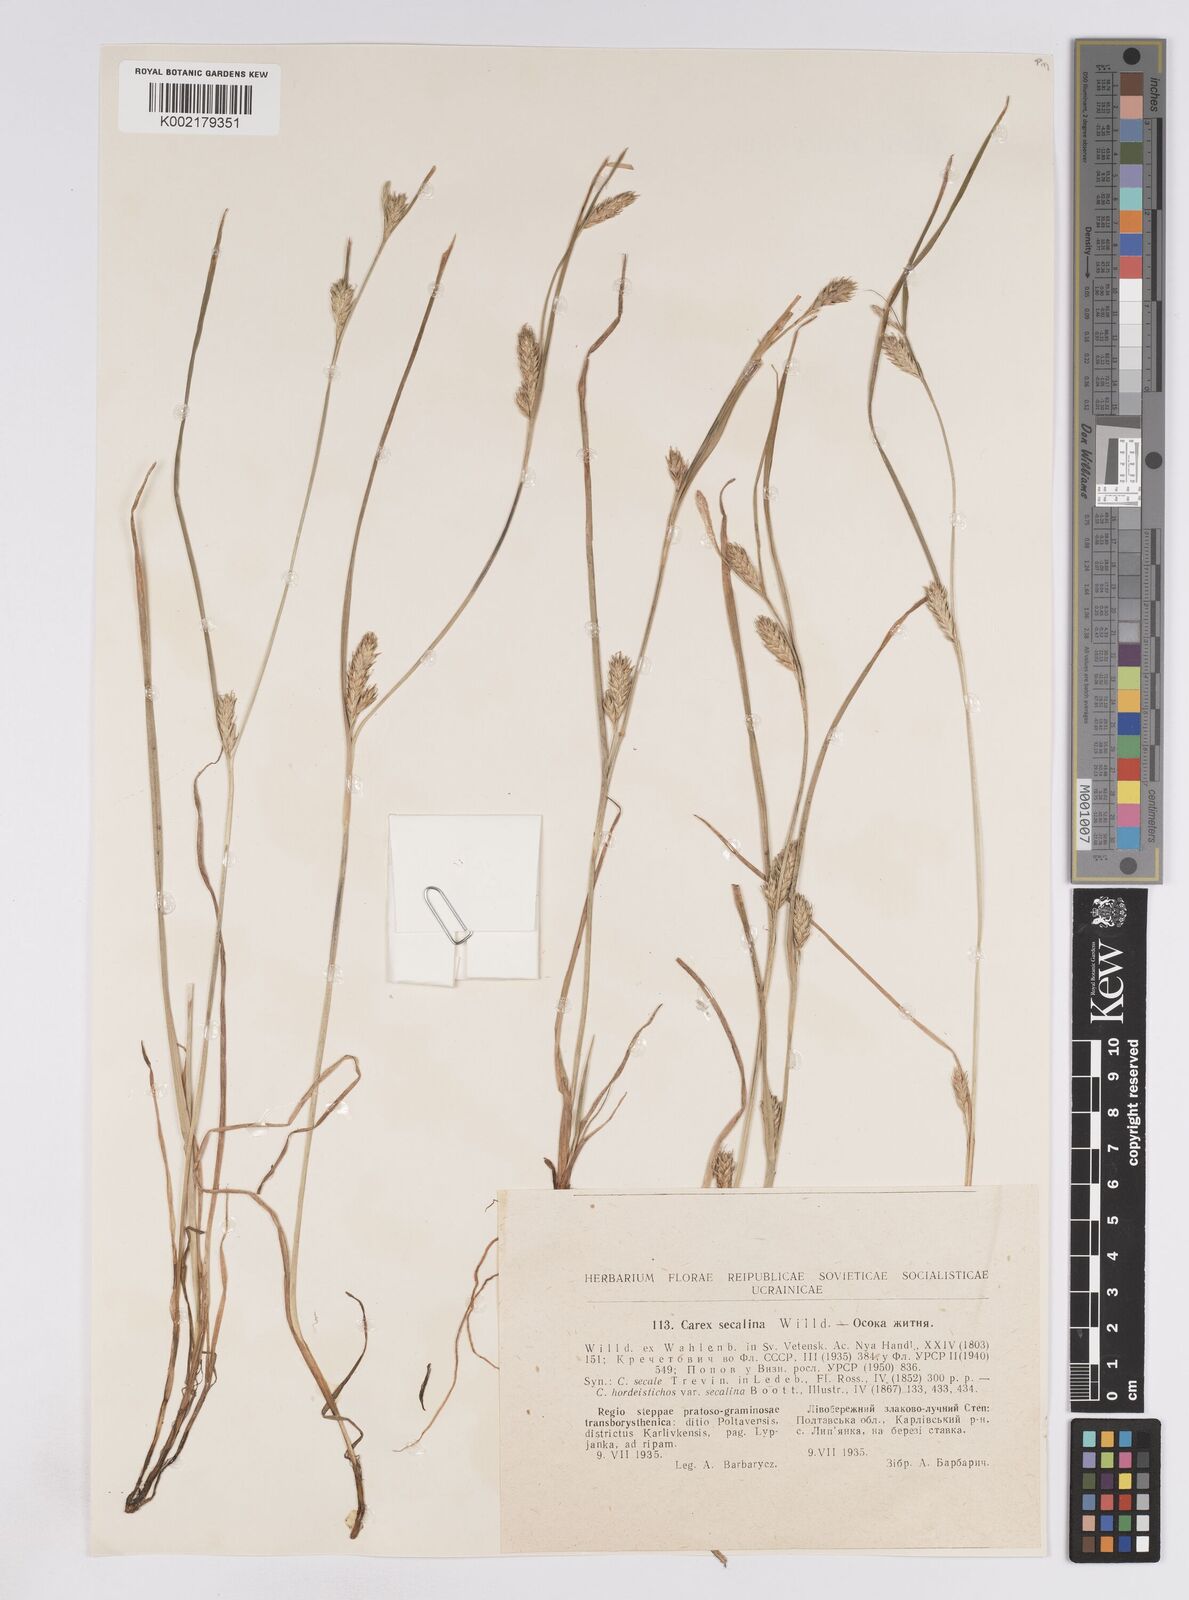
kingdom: Plantae
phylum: Tracheophyta
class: Liliopsida
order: Poales
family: Cyperaceae
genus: Carex
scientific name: Carex secalina
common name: Rye sedge
